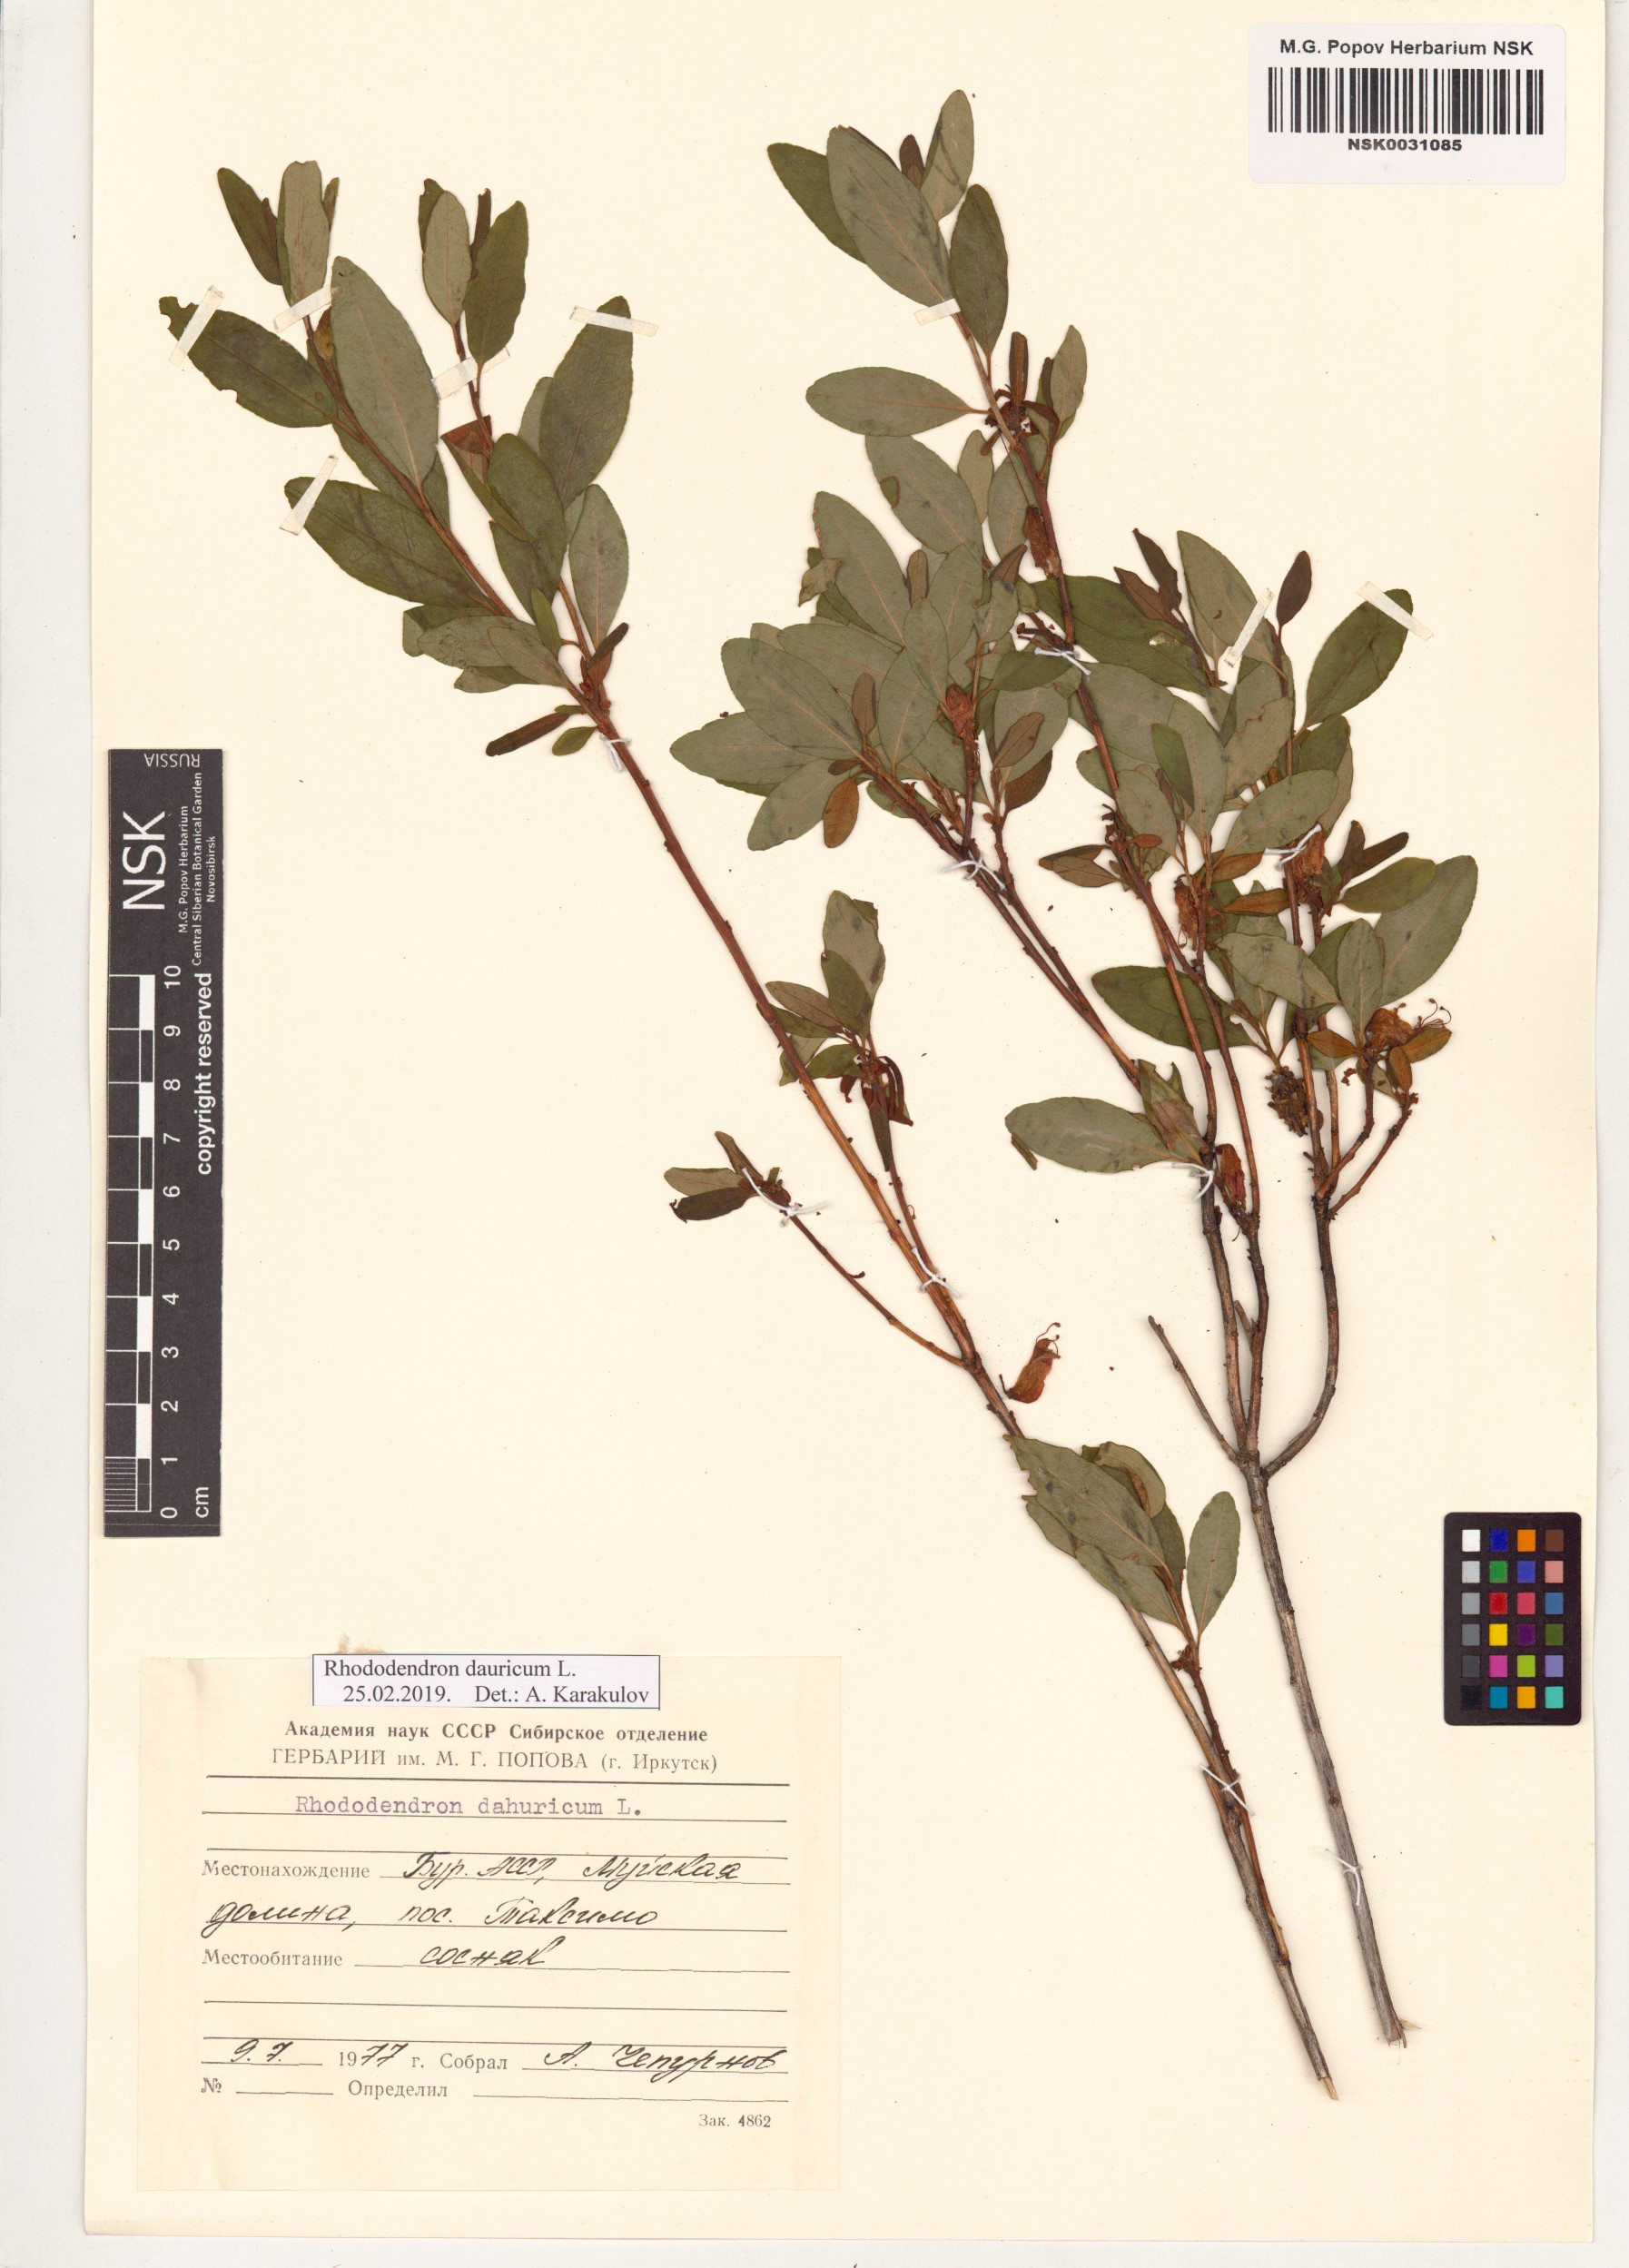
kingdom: Plantae
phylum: Tracheophyta
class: Magnoliopsida
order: Ericales
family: Ericaceae
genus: Rhododendron
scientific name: Rhododendron dauricum
